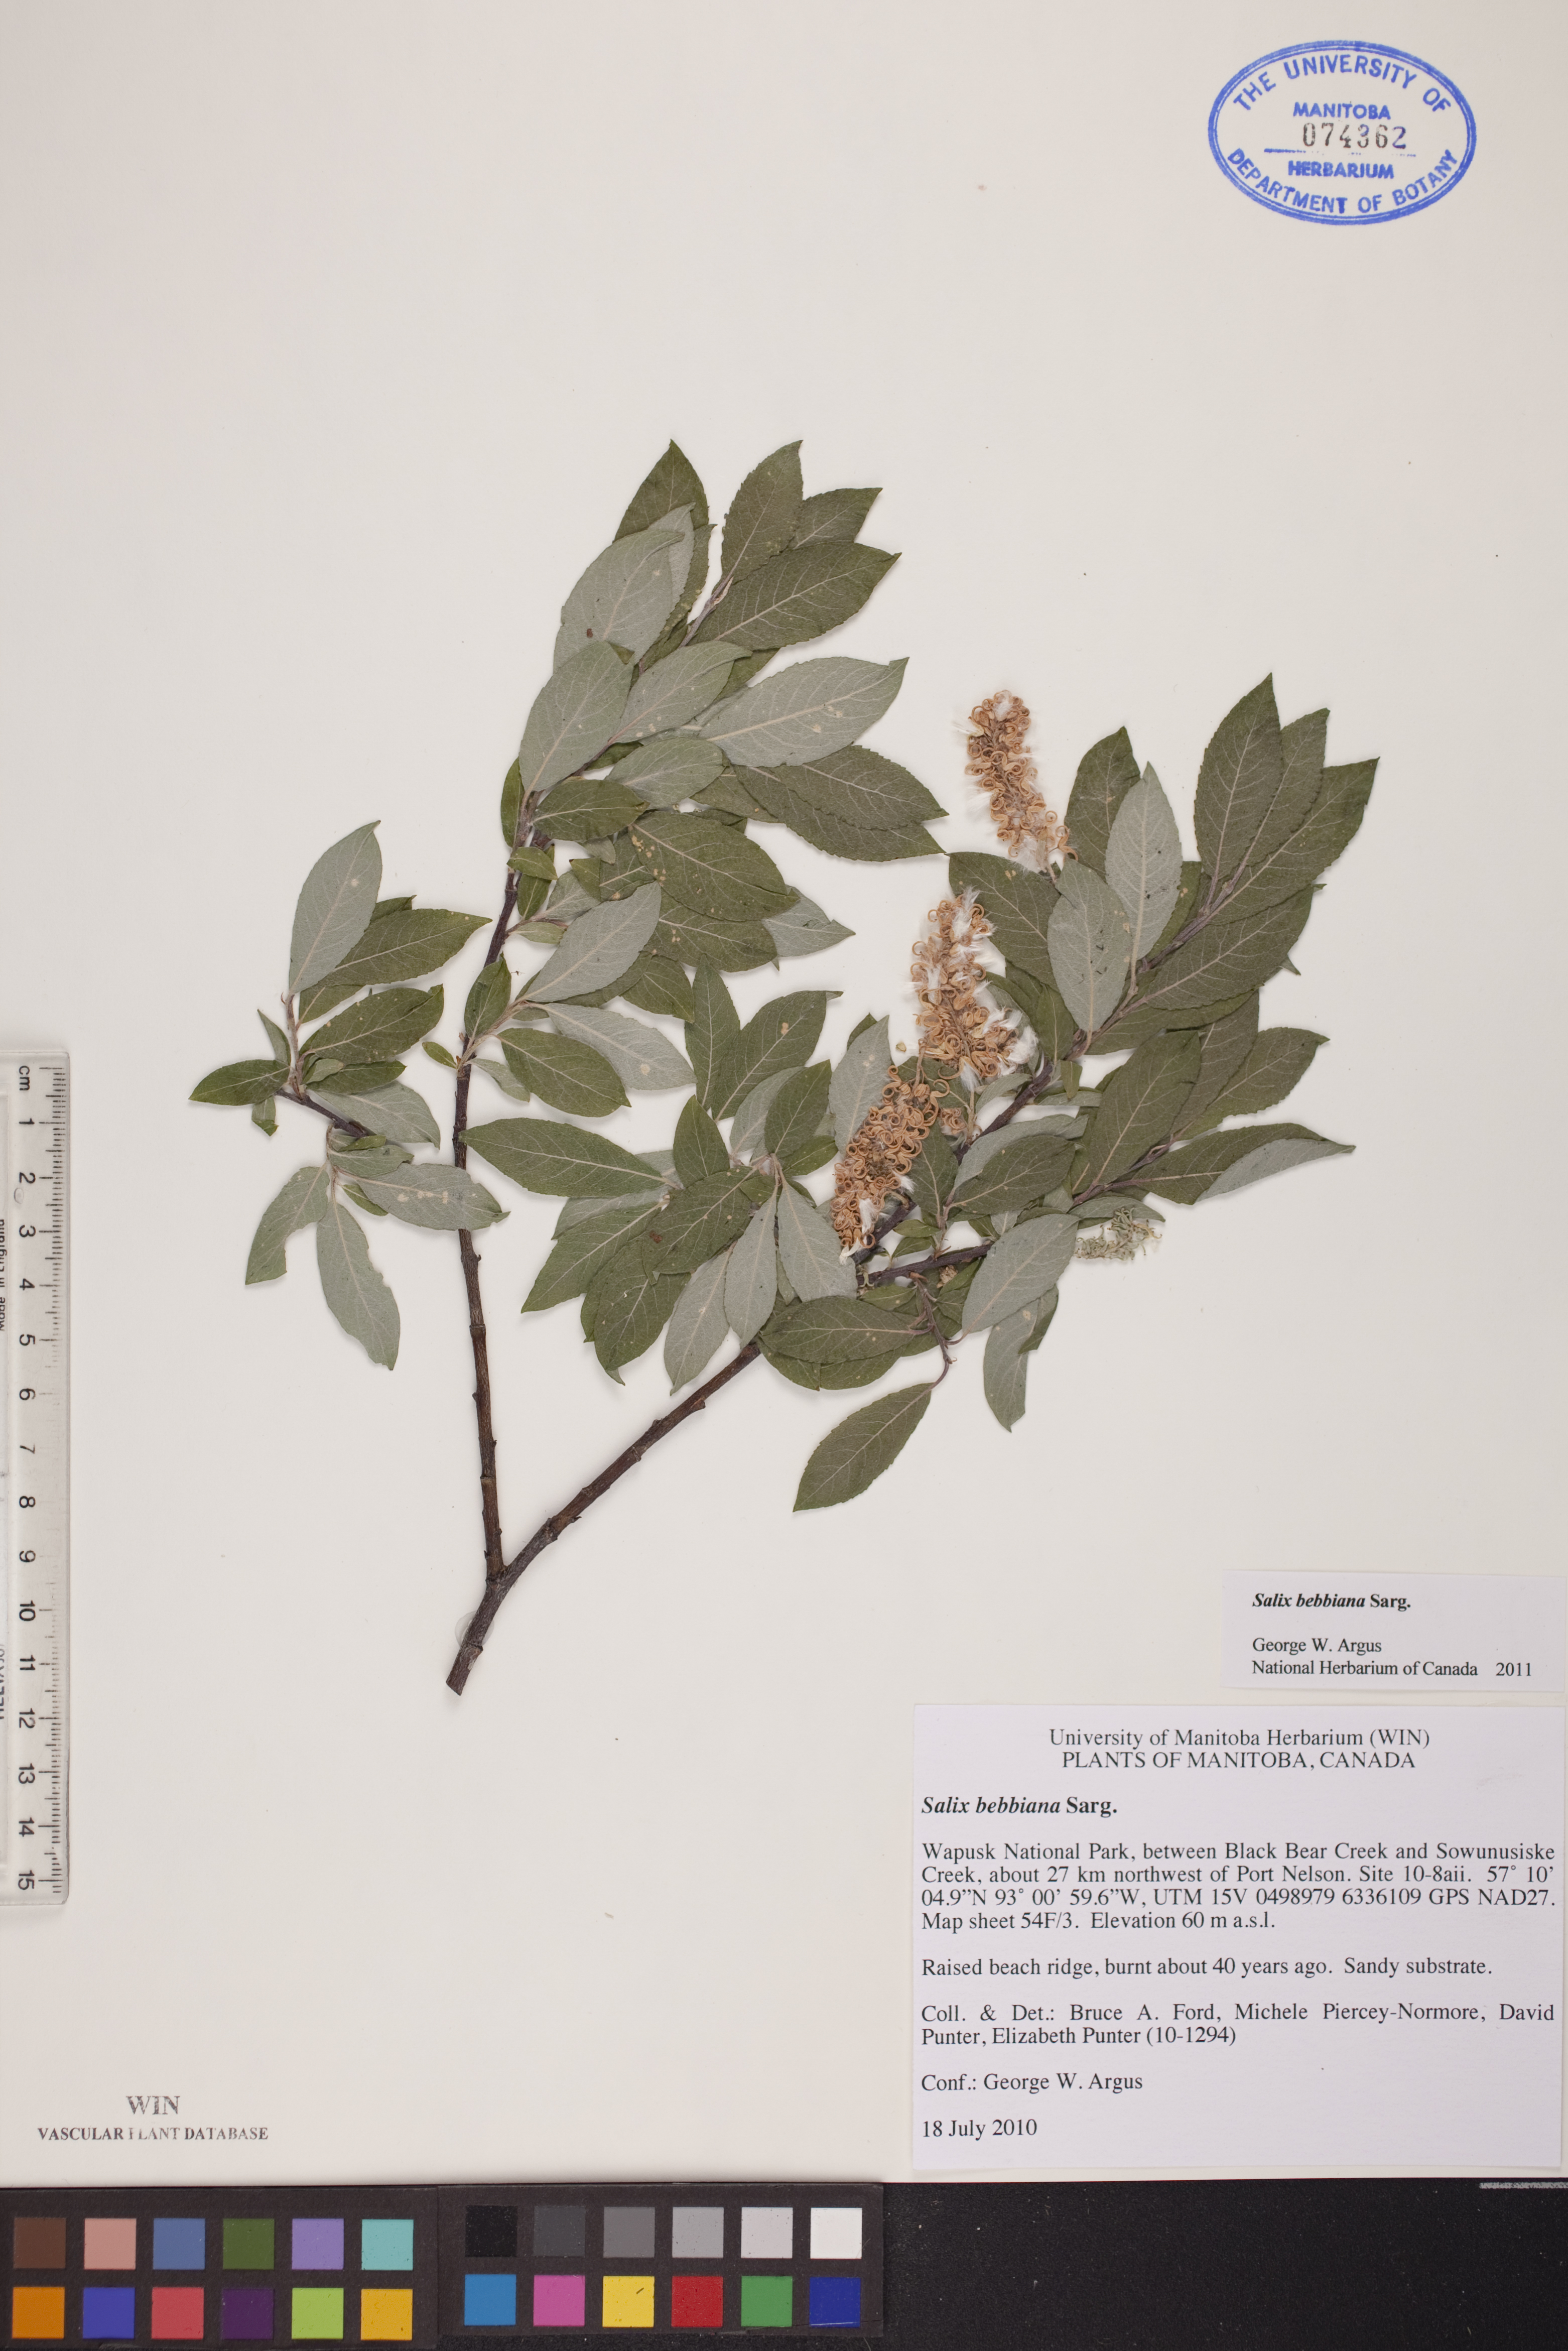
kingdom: Plantae
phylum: Tracheophyta
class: Magnoliopsida
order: Malpighiales
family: Salicaceae
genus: Salix
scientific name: Salix bebbiana
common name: Bebb's willow
